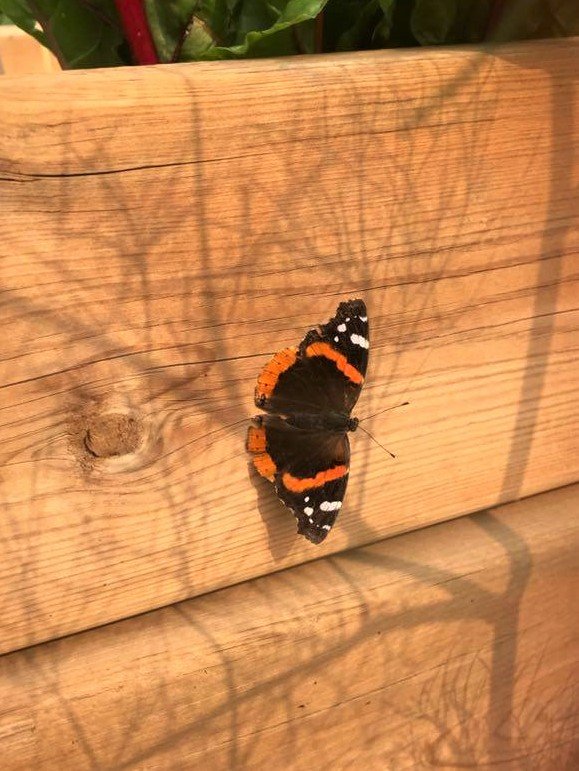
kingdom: Animalia
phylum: Arthropoda
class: Insecta
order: Lepidoptera
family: Nymphalidae
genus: Vanessa
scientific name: Vanessa atalanta
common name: Red Admiral
